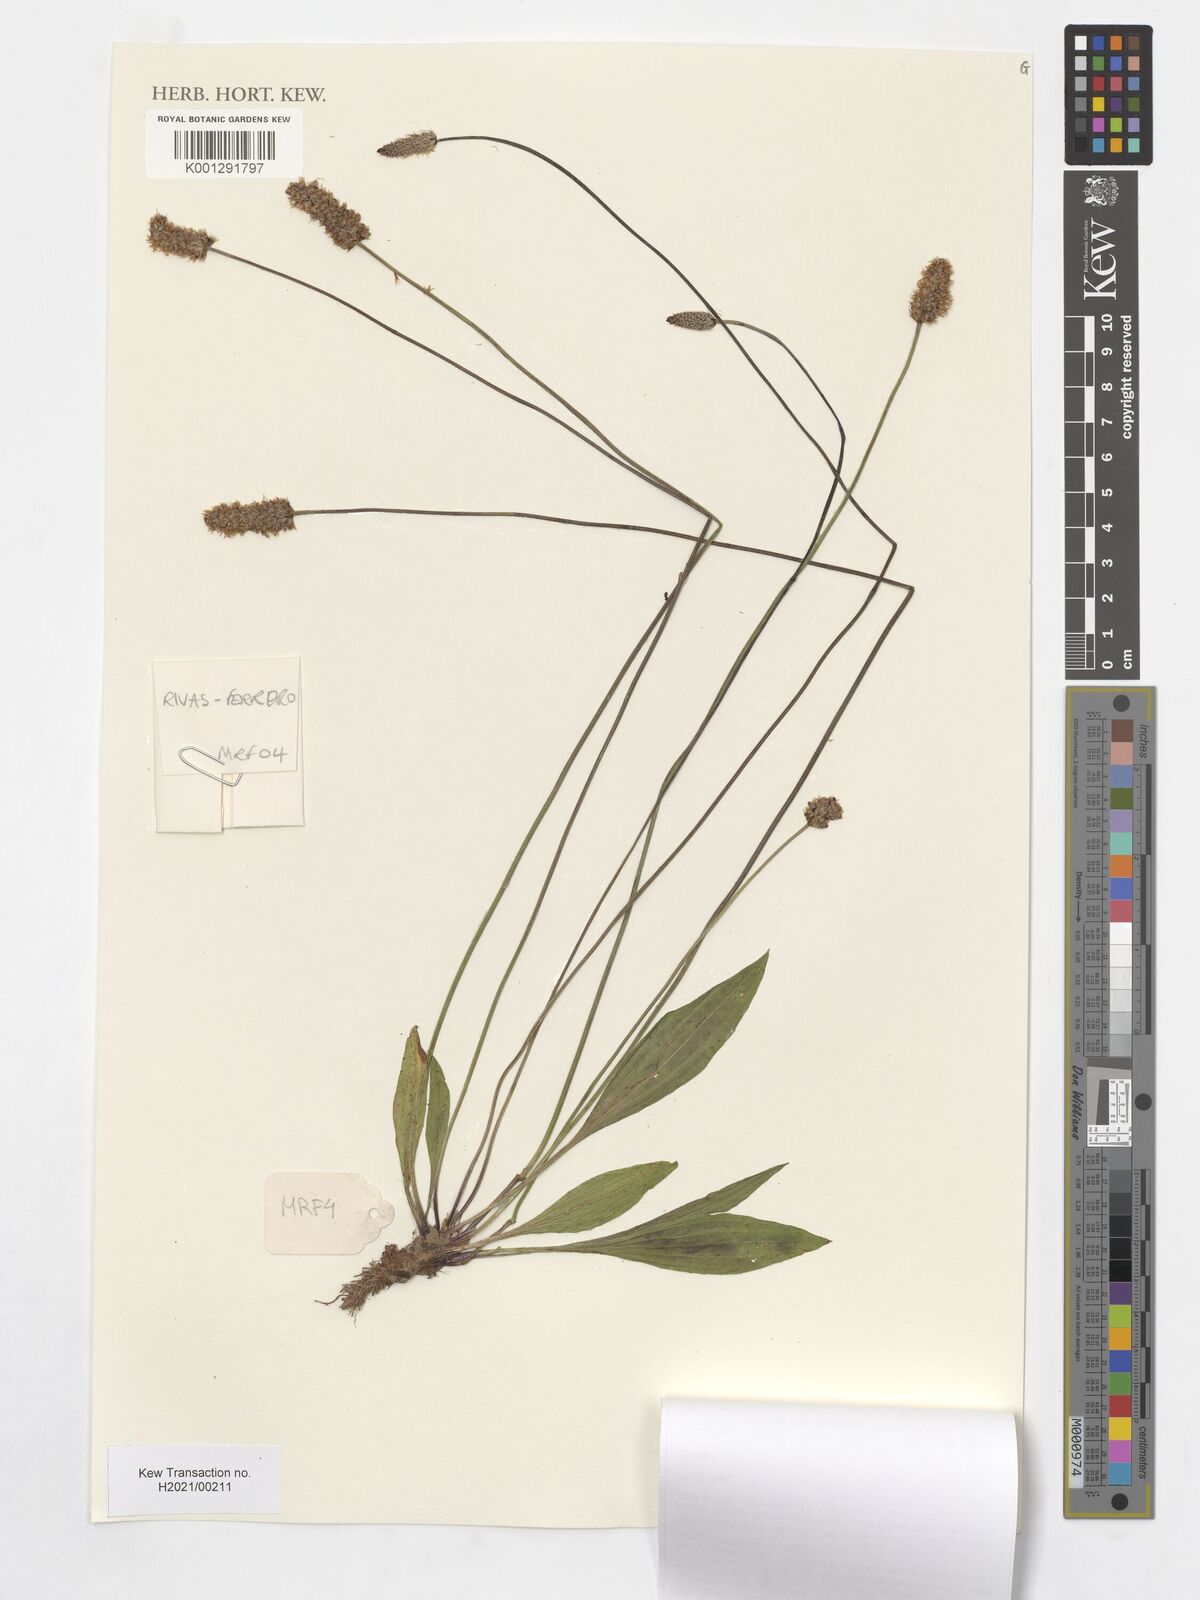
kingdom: Plantae
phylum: Tracheophyta
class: Magnoliopsida
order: Lamiales
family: Plantaginaceae
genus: Plantago
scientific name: Plantago lanceolata
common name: Ribwort plantain
